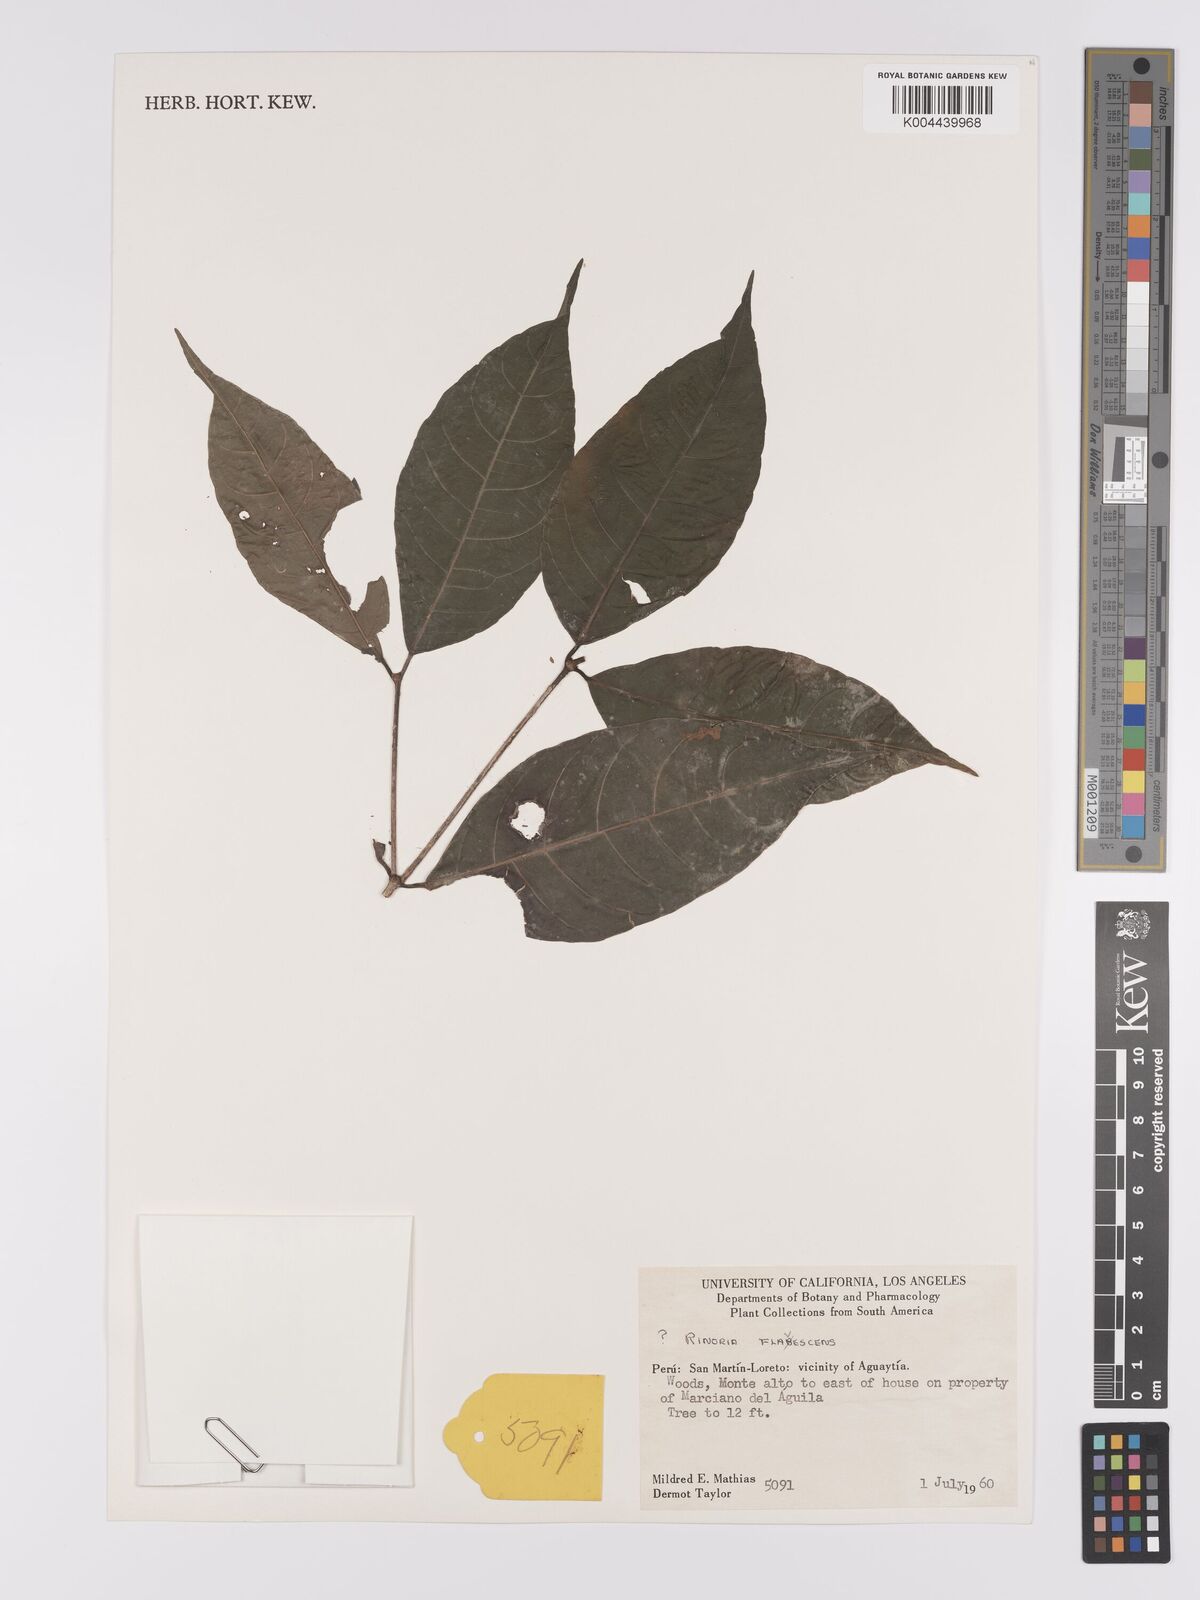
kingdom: Plantae
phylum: Tracheophyta
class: Magnoliopsida
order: Malpighiales
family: Violaceae
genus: Rinorea
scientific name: Rinorea flavescens
